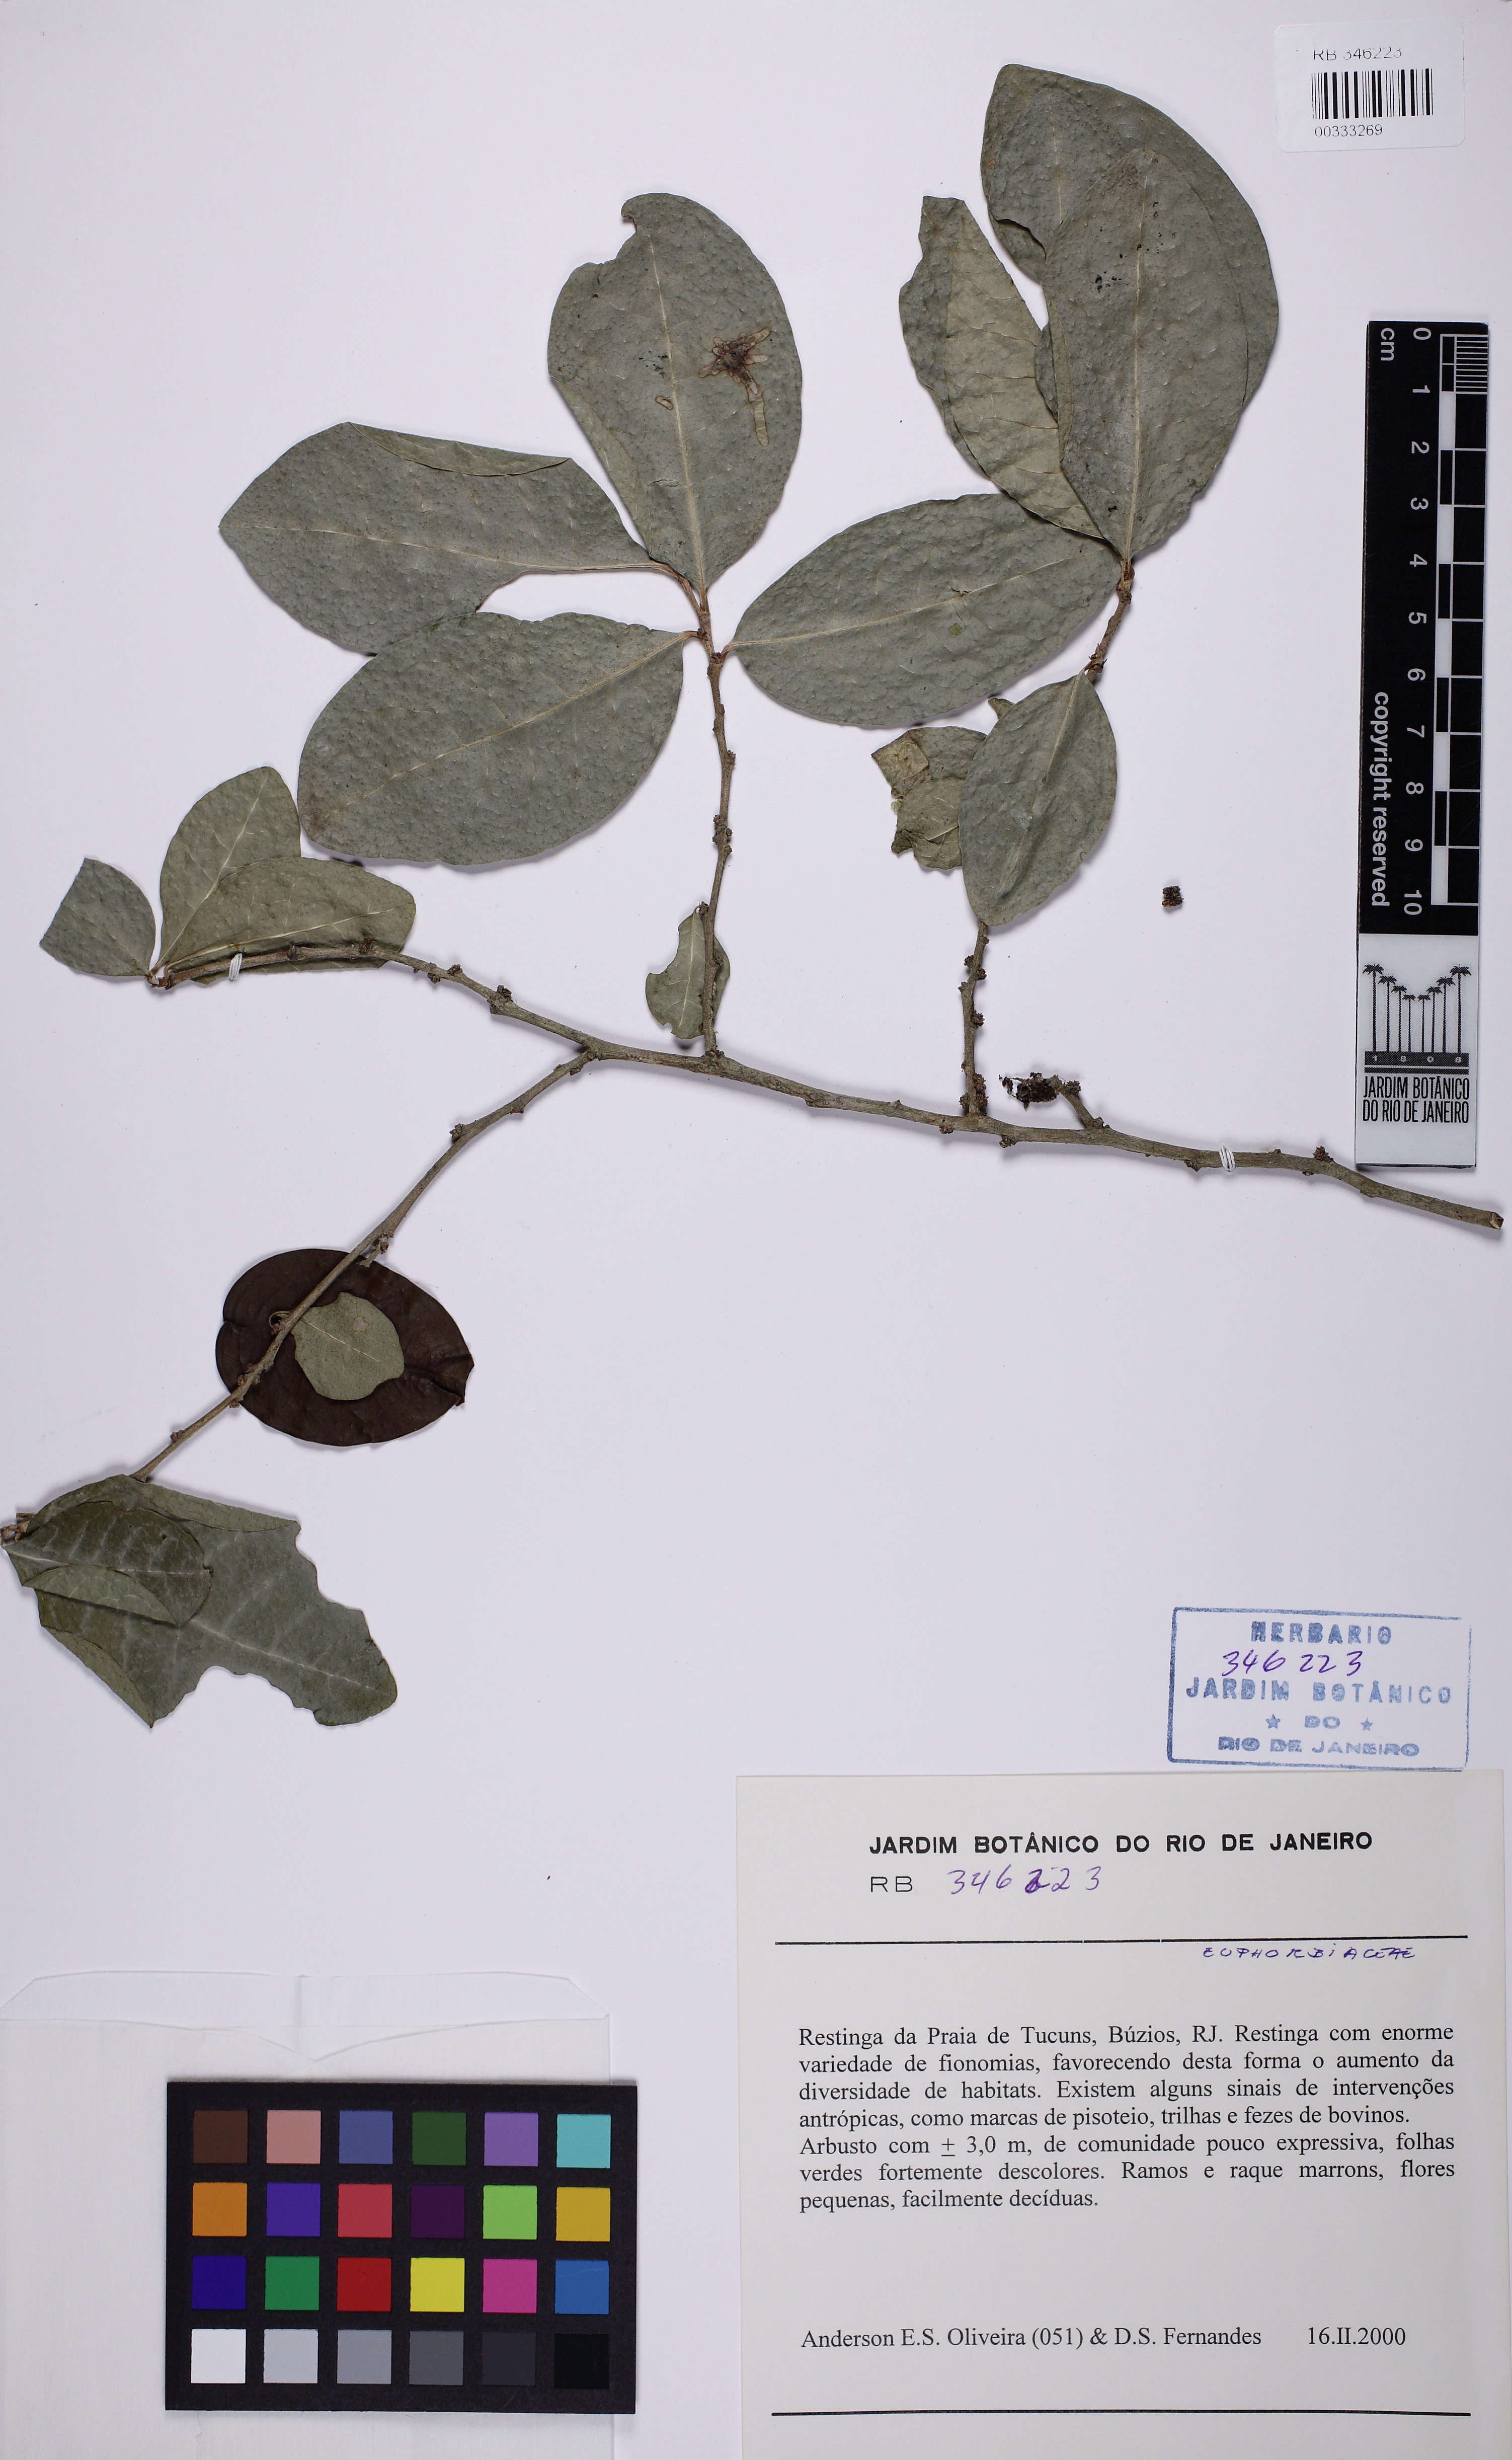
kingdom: Plantae
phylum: Tracheophyta
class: Magnoliopsida
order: Malpighiales
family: Phyllanthaceae
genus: Flueggea
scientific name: Flueggea schuechiana
